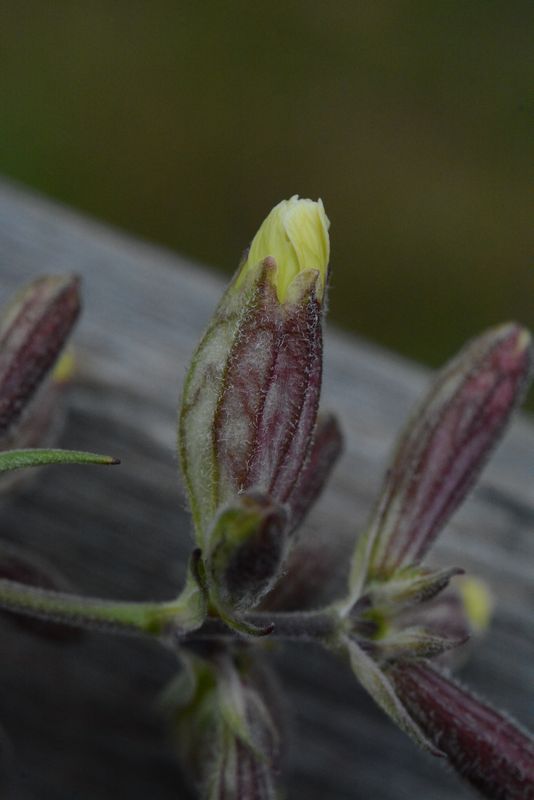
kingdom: Plantae
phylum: Tracheophyta
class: Magnoliopsida
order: Caryophyllales
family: Caryophyllaceae
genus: Silene
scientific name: Silene repens
